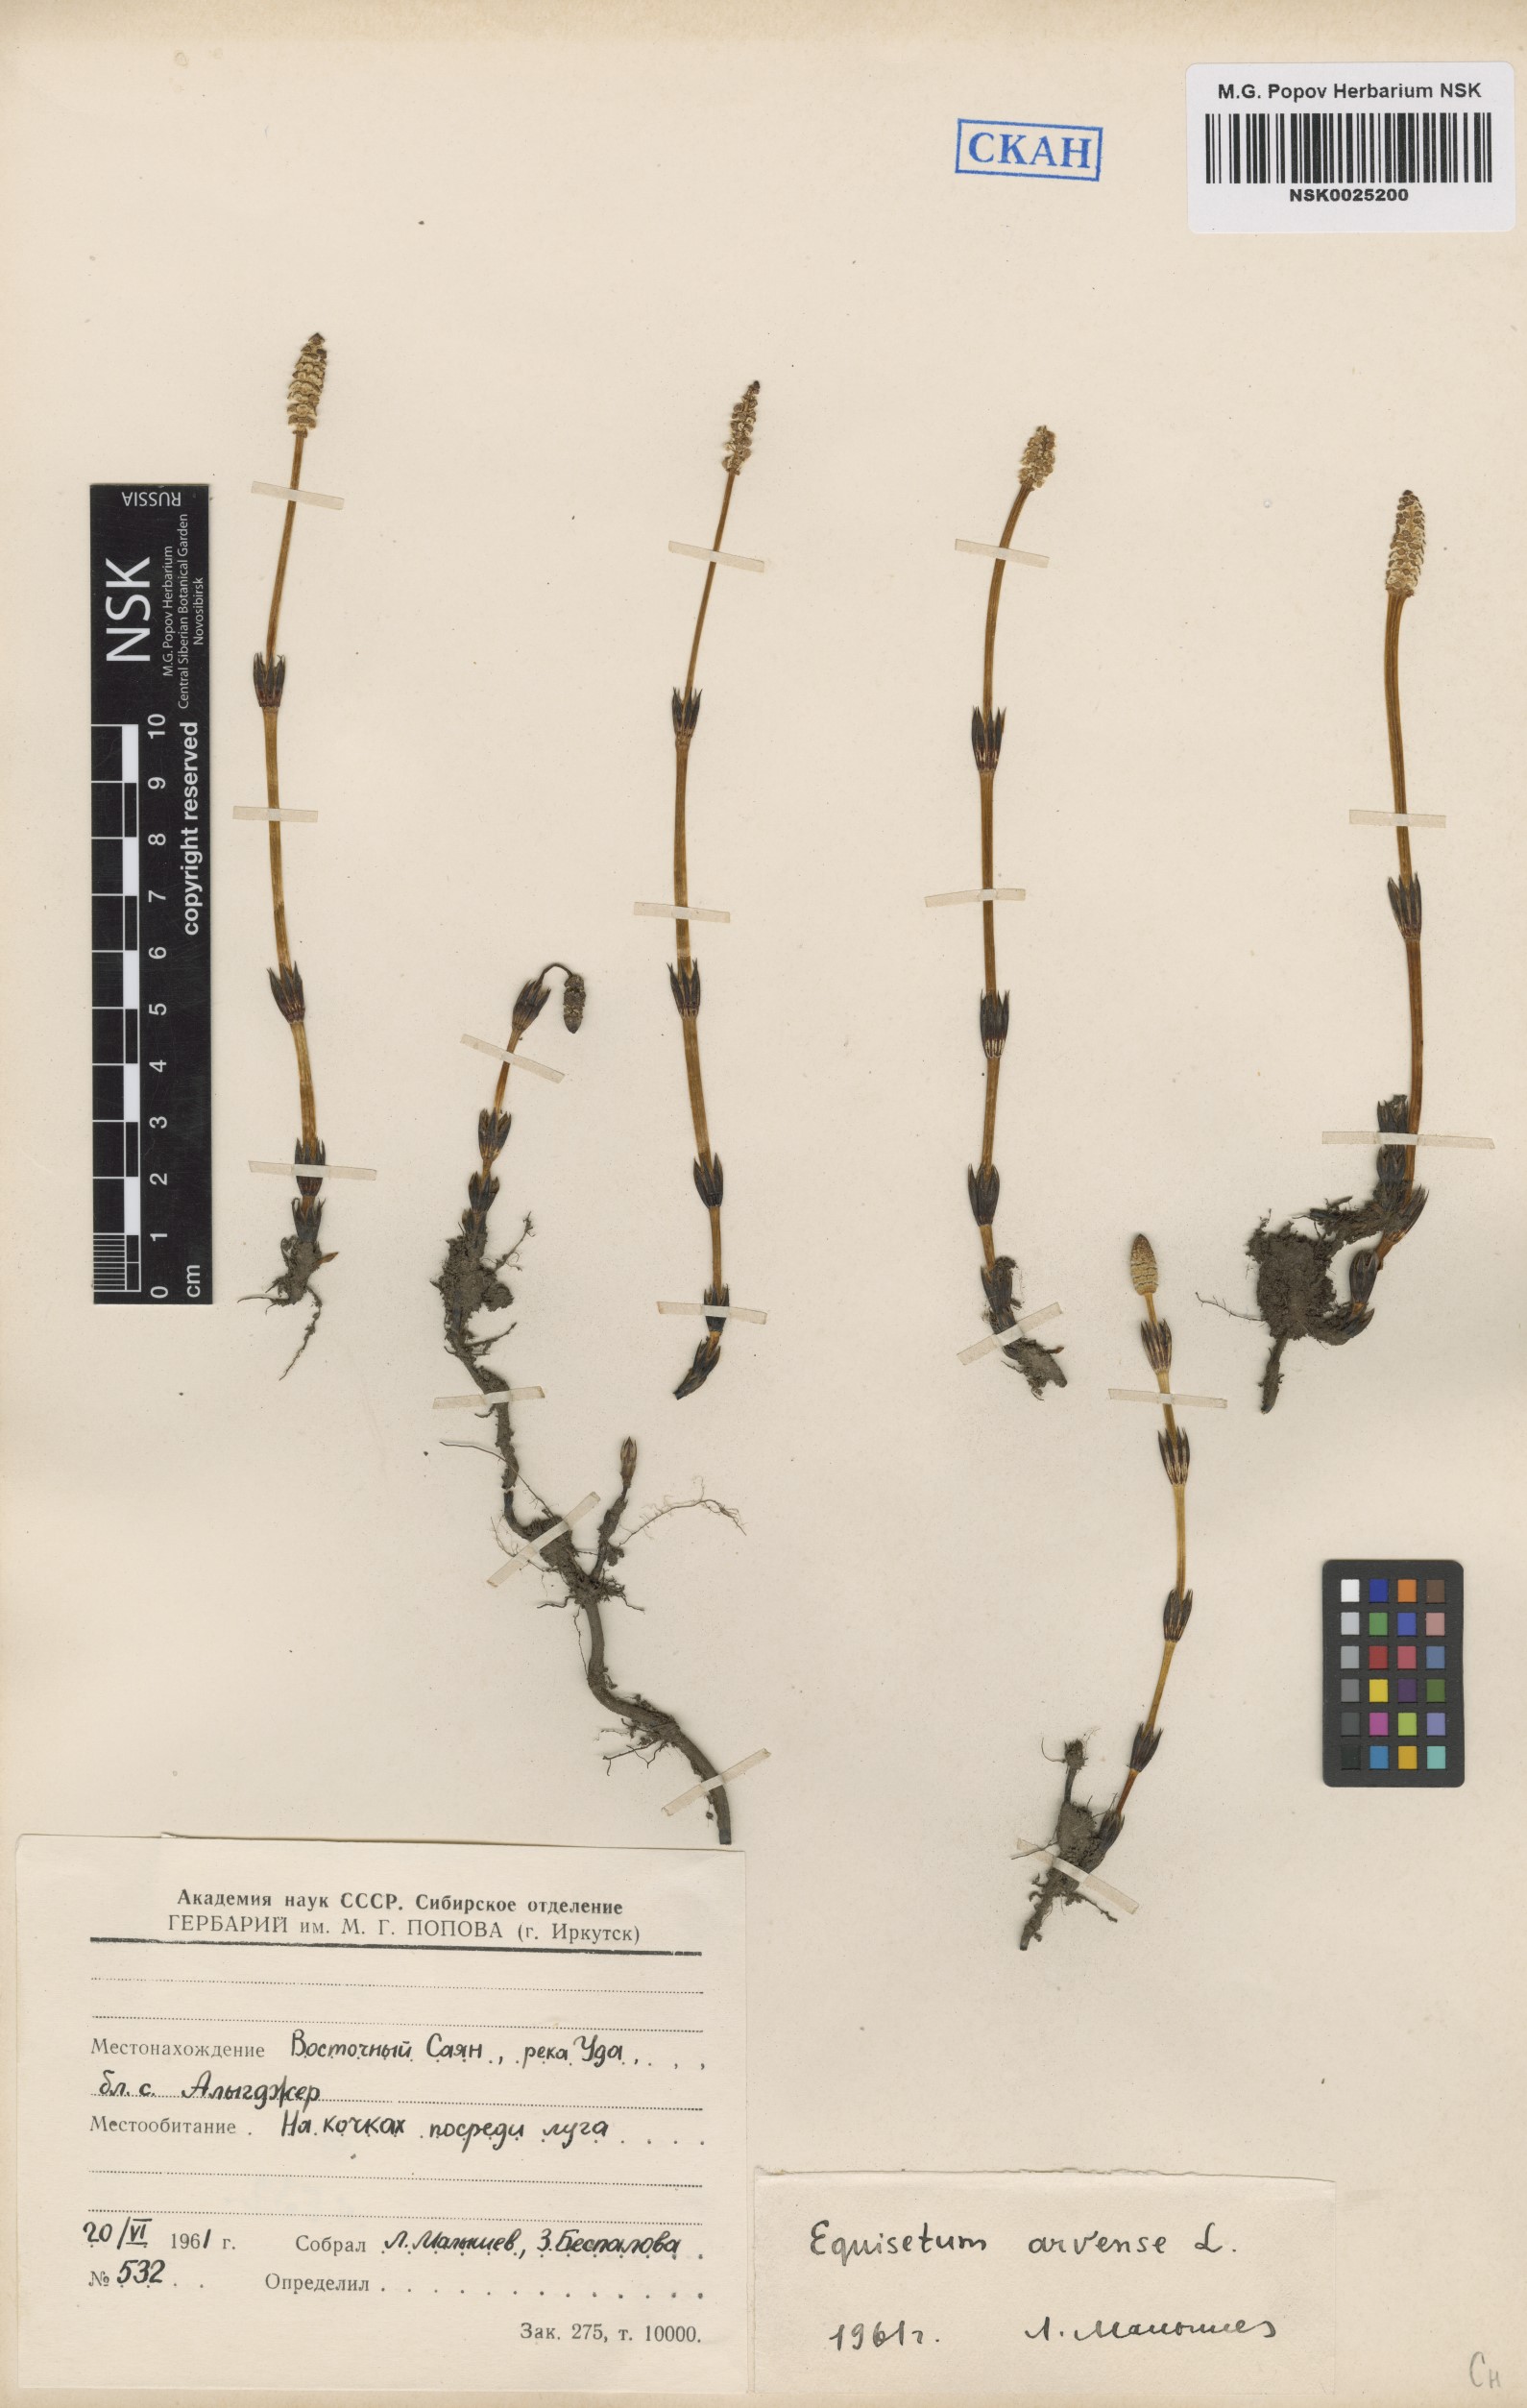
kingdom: Plantae
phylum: Tracheophyta
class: Polypodiopsida
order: Equisetales
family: Equisetaceae
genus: Equisetum
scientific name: Equisetum arvense
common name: Field horsetail
